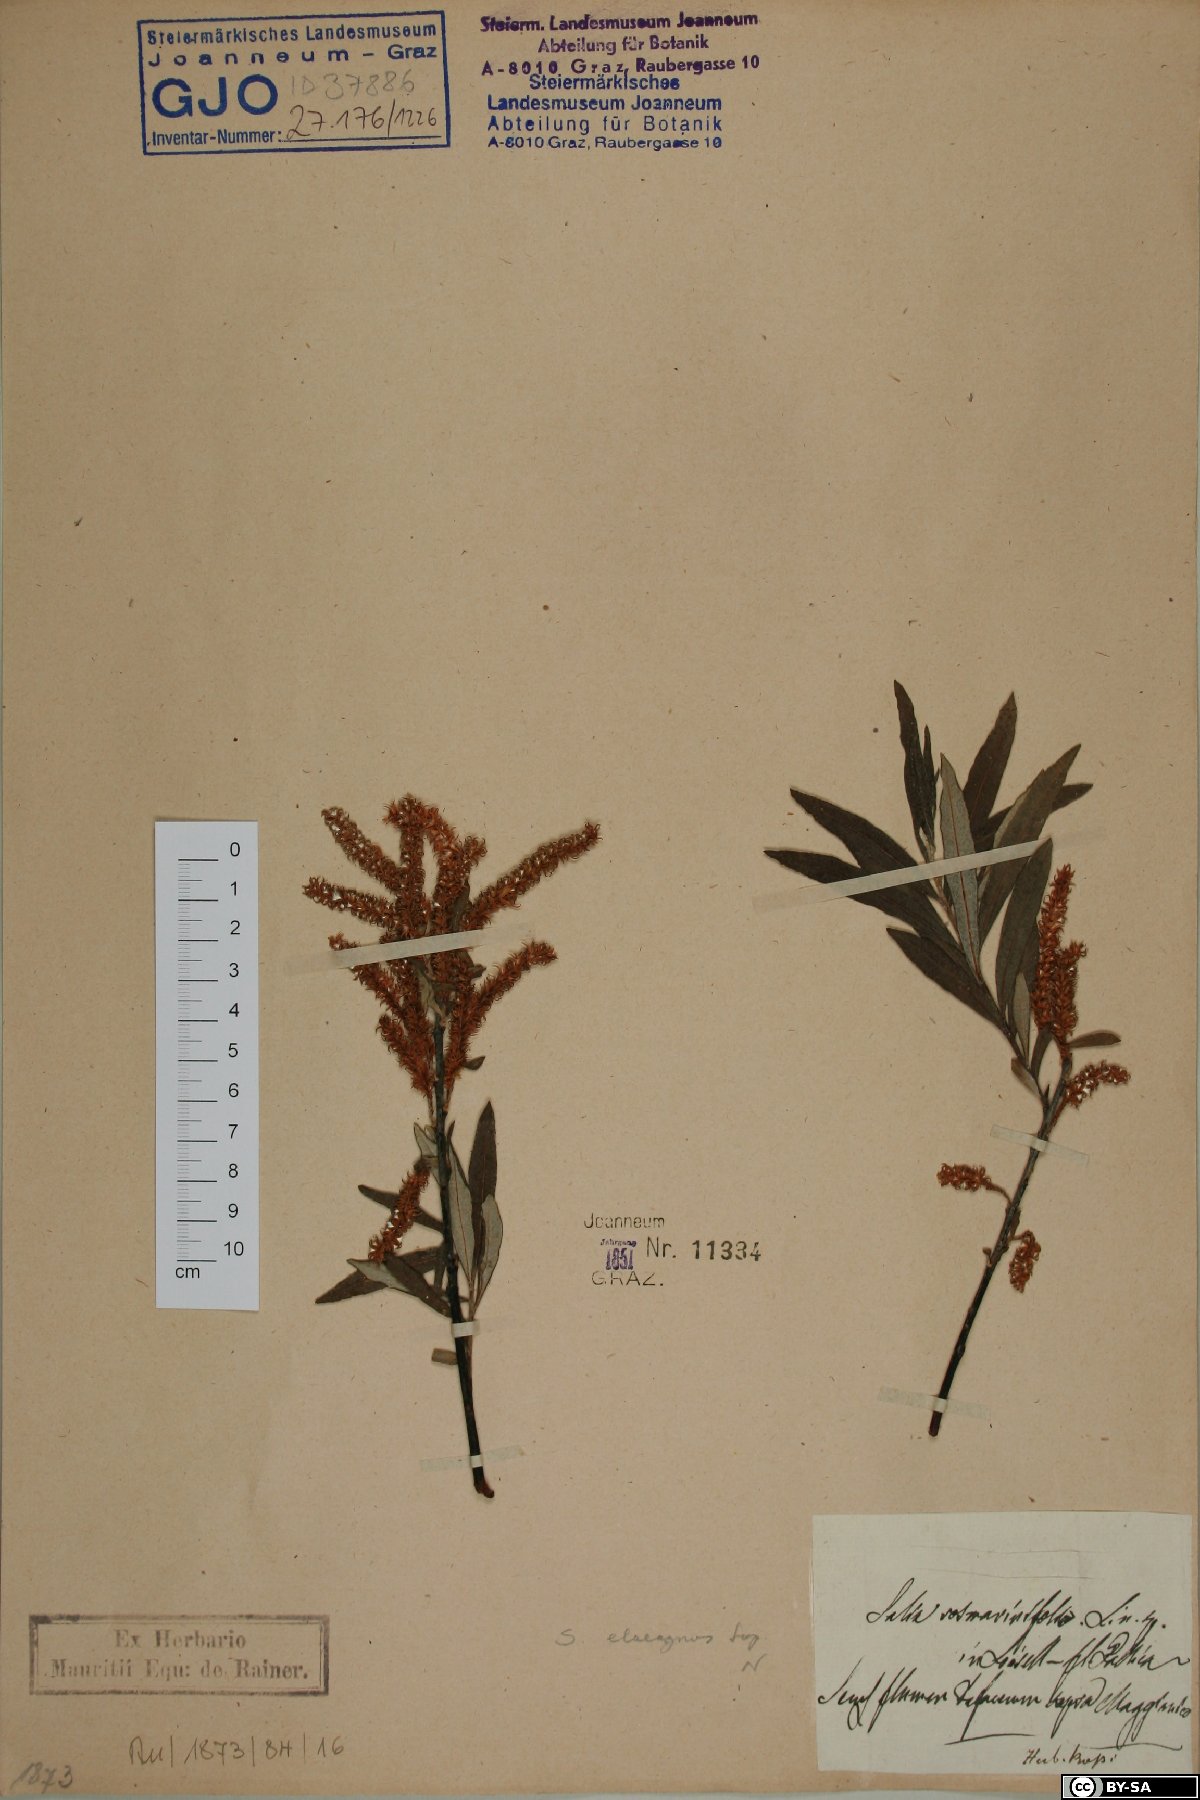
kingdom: Plantae
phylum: Tracheophyta
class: Magnoliopsida
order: Malpighiales
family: Salicaceae
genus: Salix
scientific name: Salix eleagnos
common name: Elaeagnus willow
